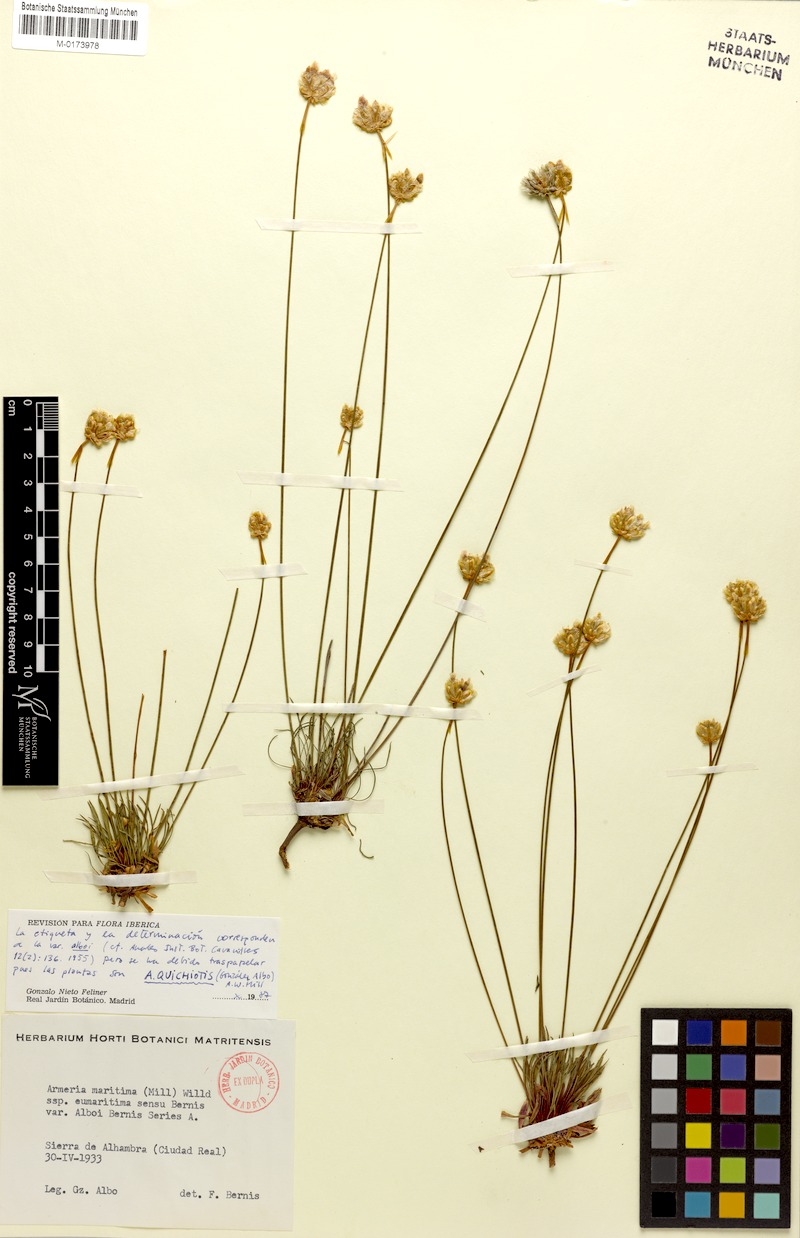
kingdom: Plantae
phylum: Tracheophyta
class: Magnoliopsida
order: Caryophyllales
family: Plumbaginaceae
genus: Armeria
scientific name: Armeria quichiotis
